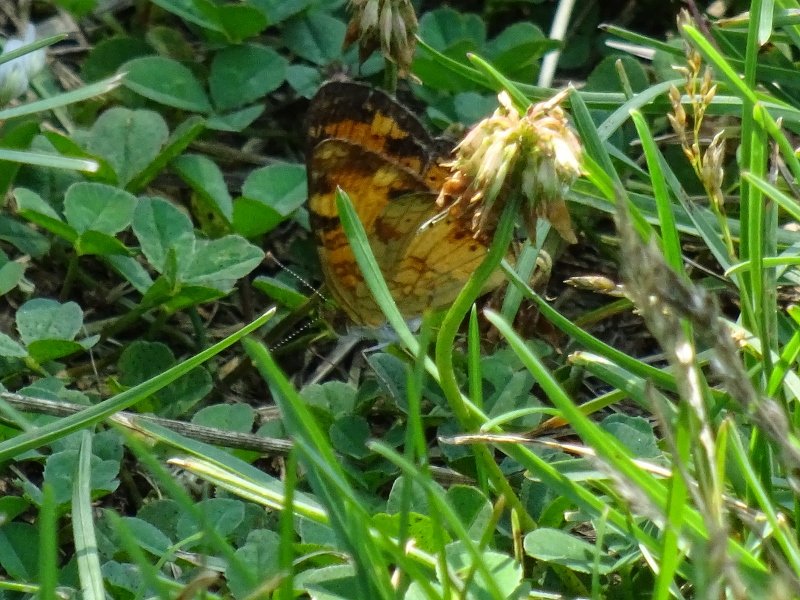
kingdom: Animalia
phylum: Arthropoda
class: Insecta
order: Lepidoptera
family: Nymphalidae
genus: Phyciodes
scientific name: Phyciodes tharos
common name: Northern Crescent
